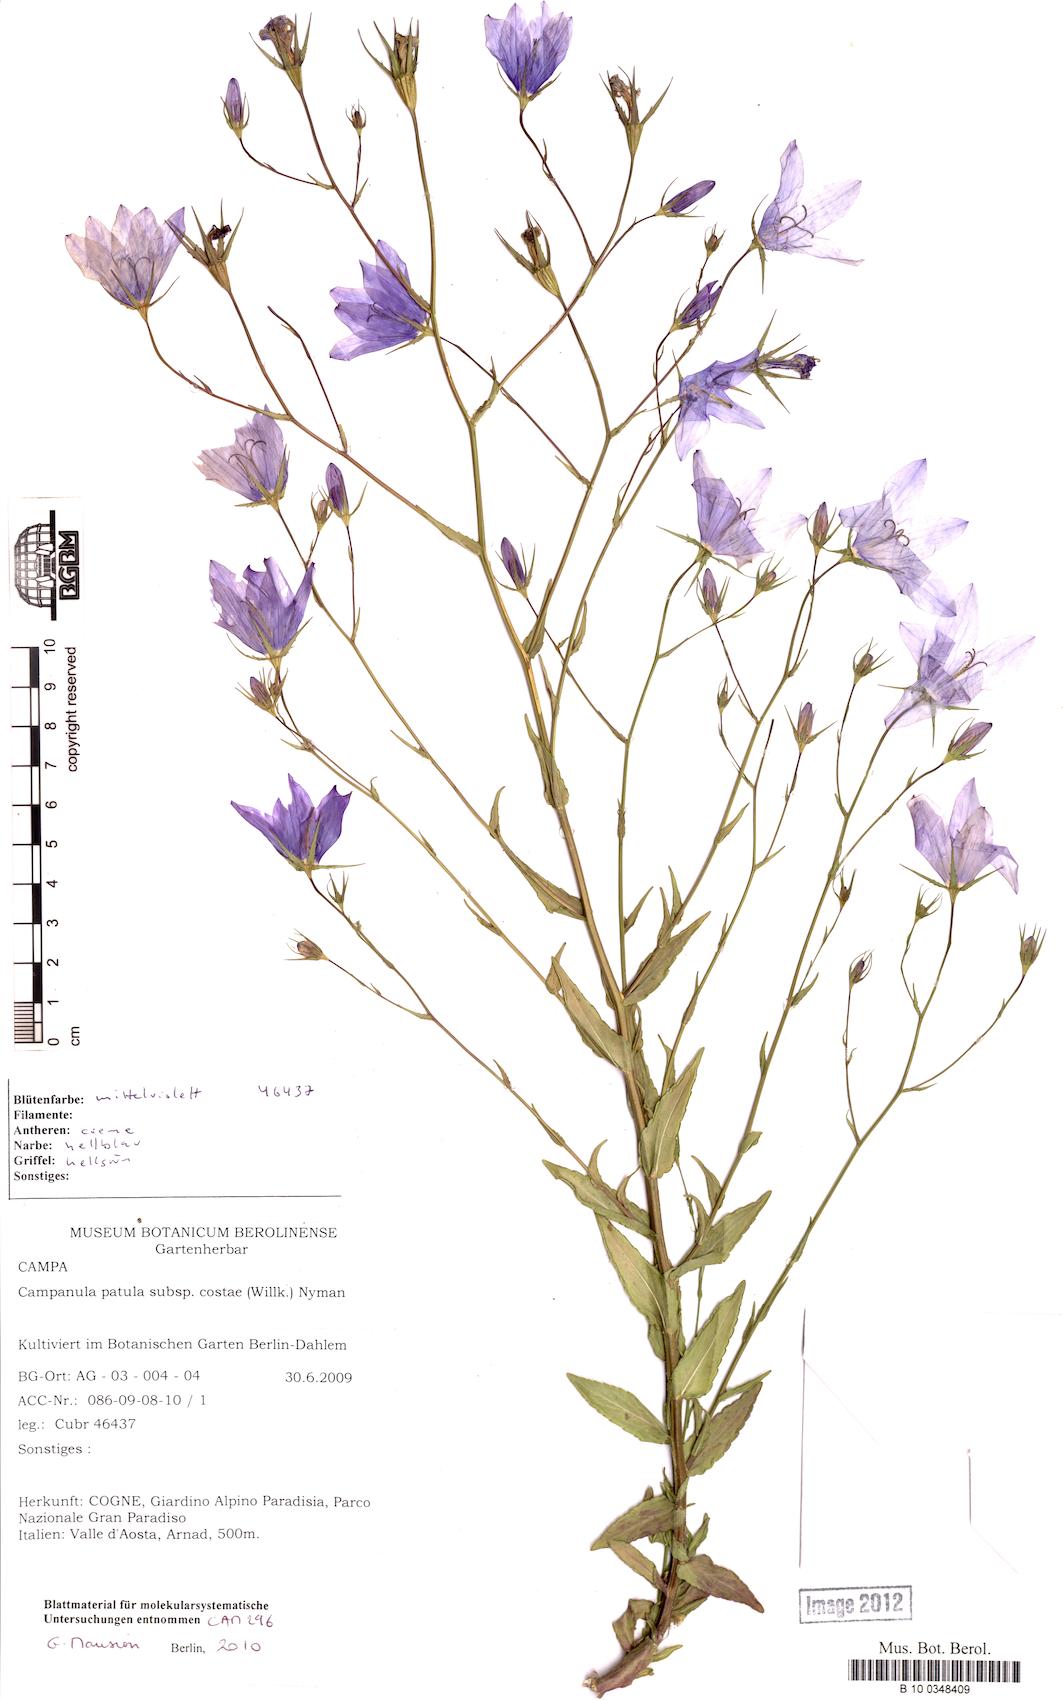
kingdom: Plantae
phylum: Tracheophyta
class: Magnoliopsida
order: Asterales
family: Campanulaceae
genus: Campanula
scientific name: Campanula patula
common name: Spreading bellflower
